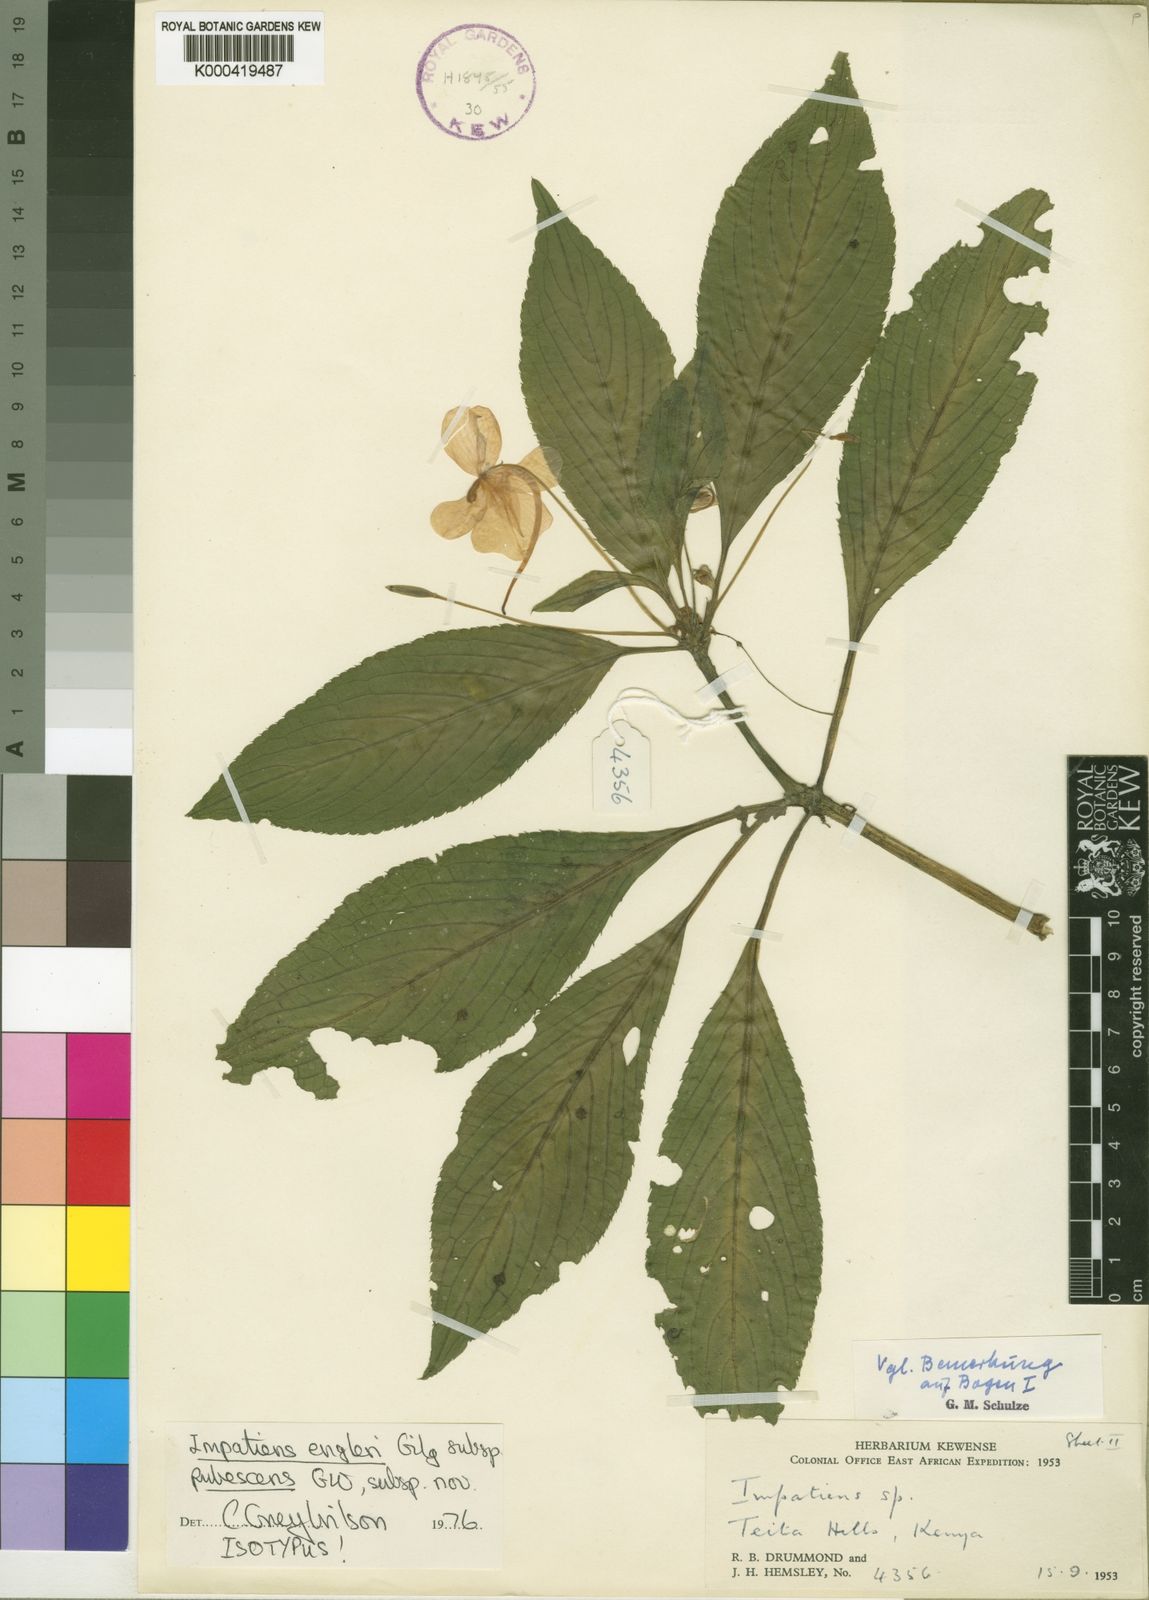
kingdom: Plantae
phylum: Tracheophyta
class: Magnoliopsida
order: Ericales
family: Balsaminaceae
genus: Impatiens
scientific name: Impatiens engleri
